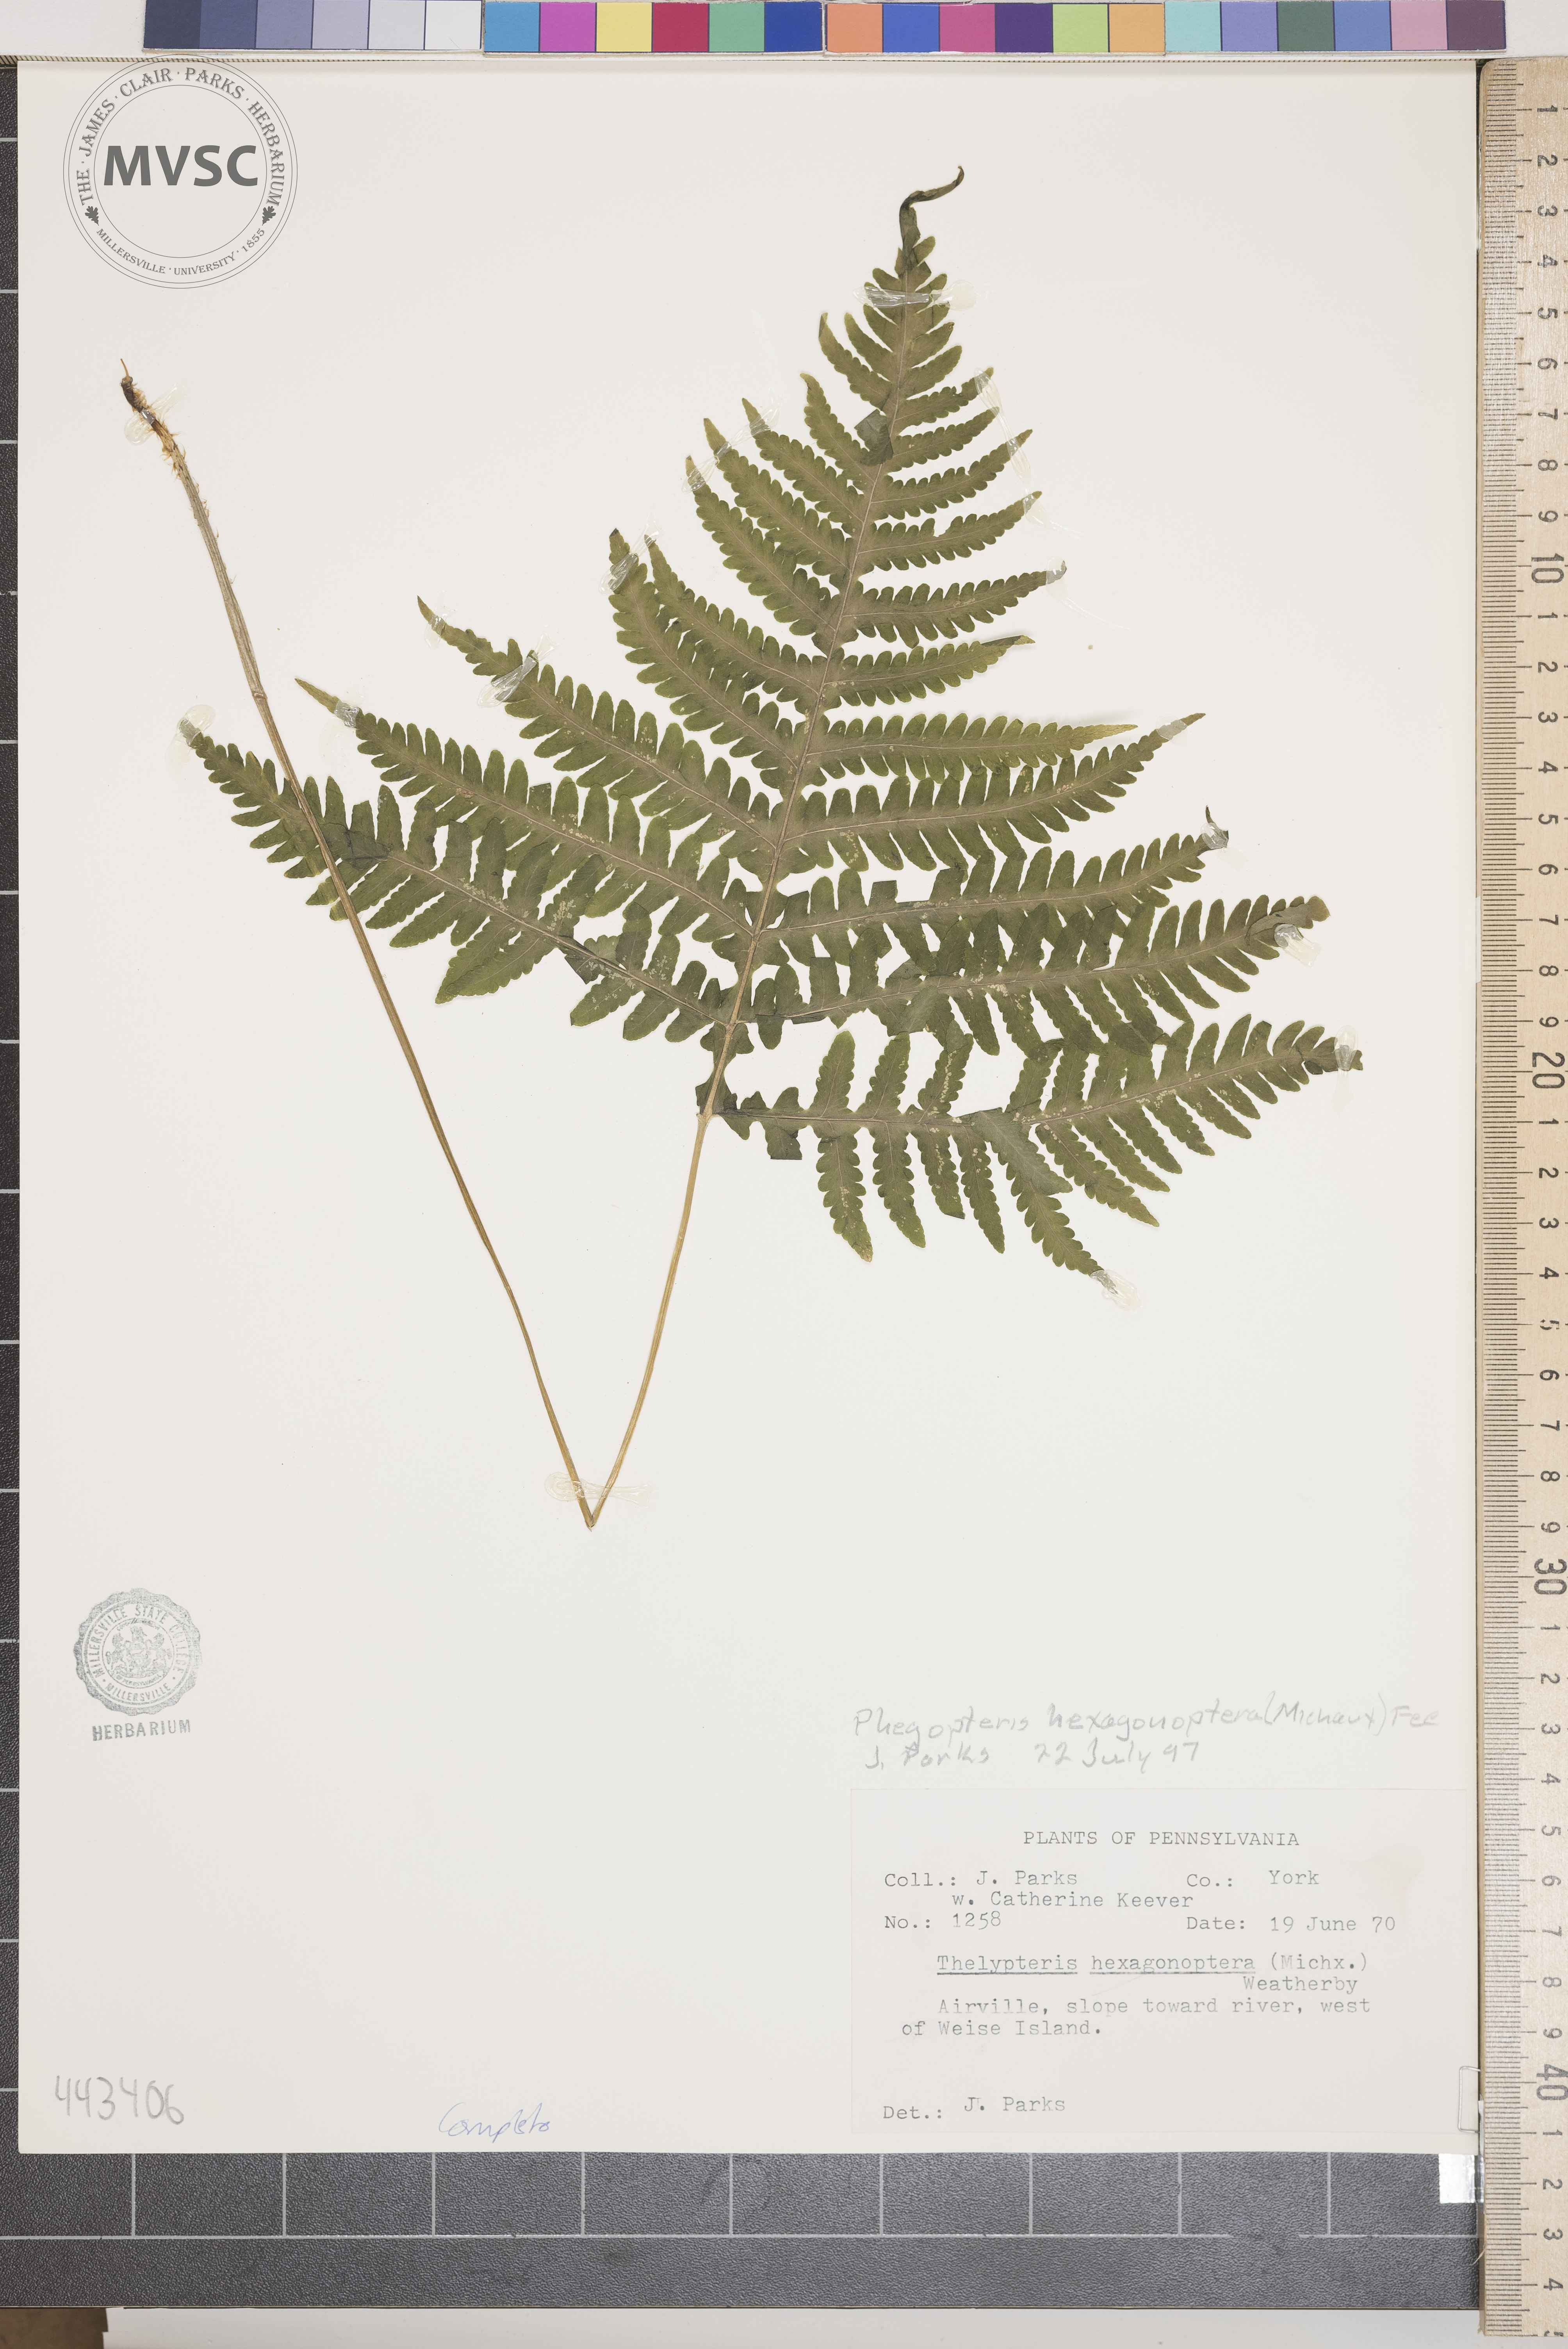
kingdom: Plantae
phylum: Tracheophyta
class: Polypodiopsida
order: Polypodiales
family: Thelypteridaceae
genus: Phegopteris
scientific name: Phegopteris hexagonoptera
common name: Broad beech fern
